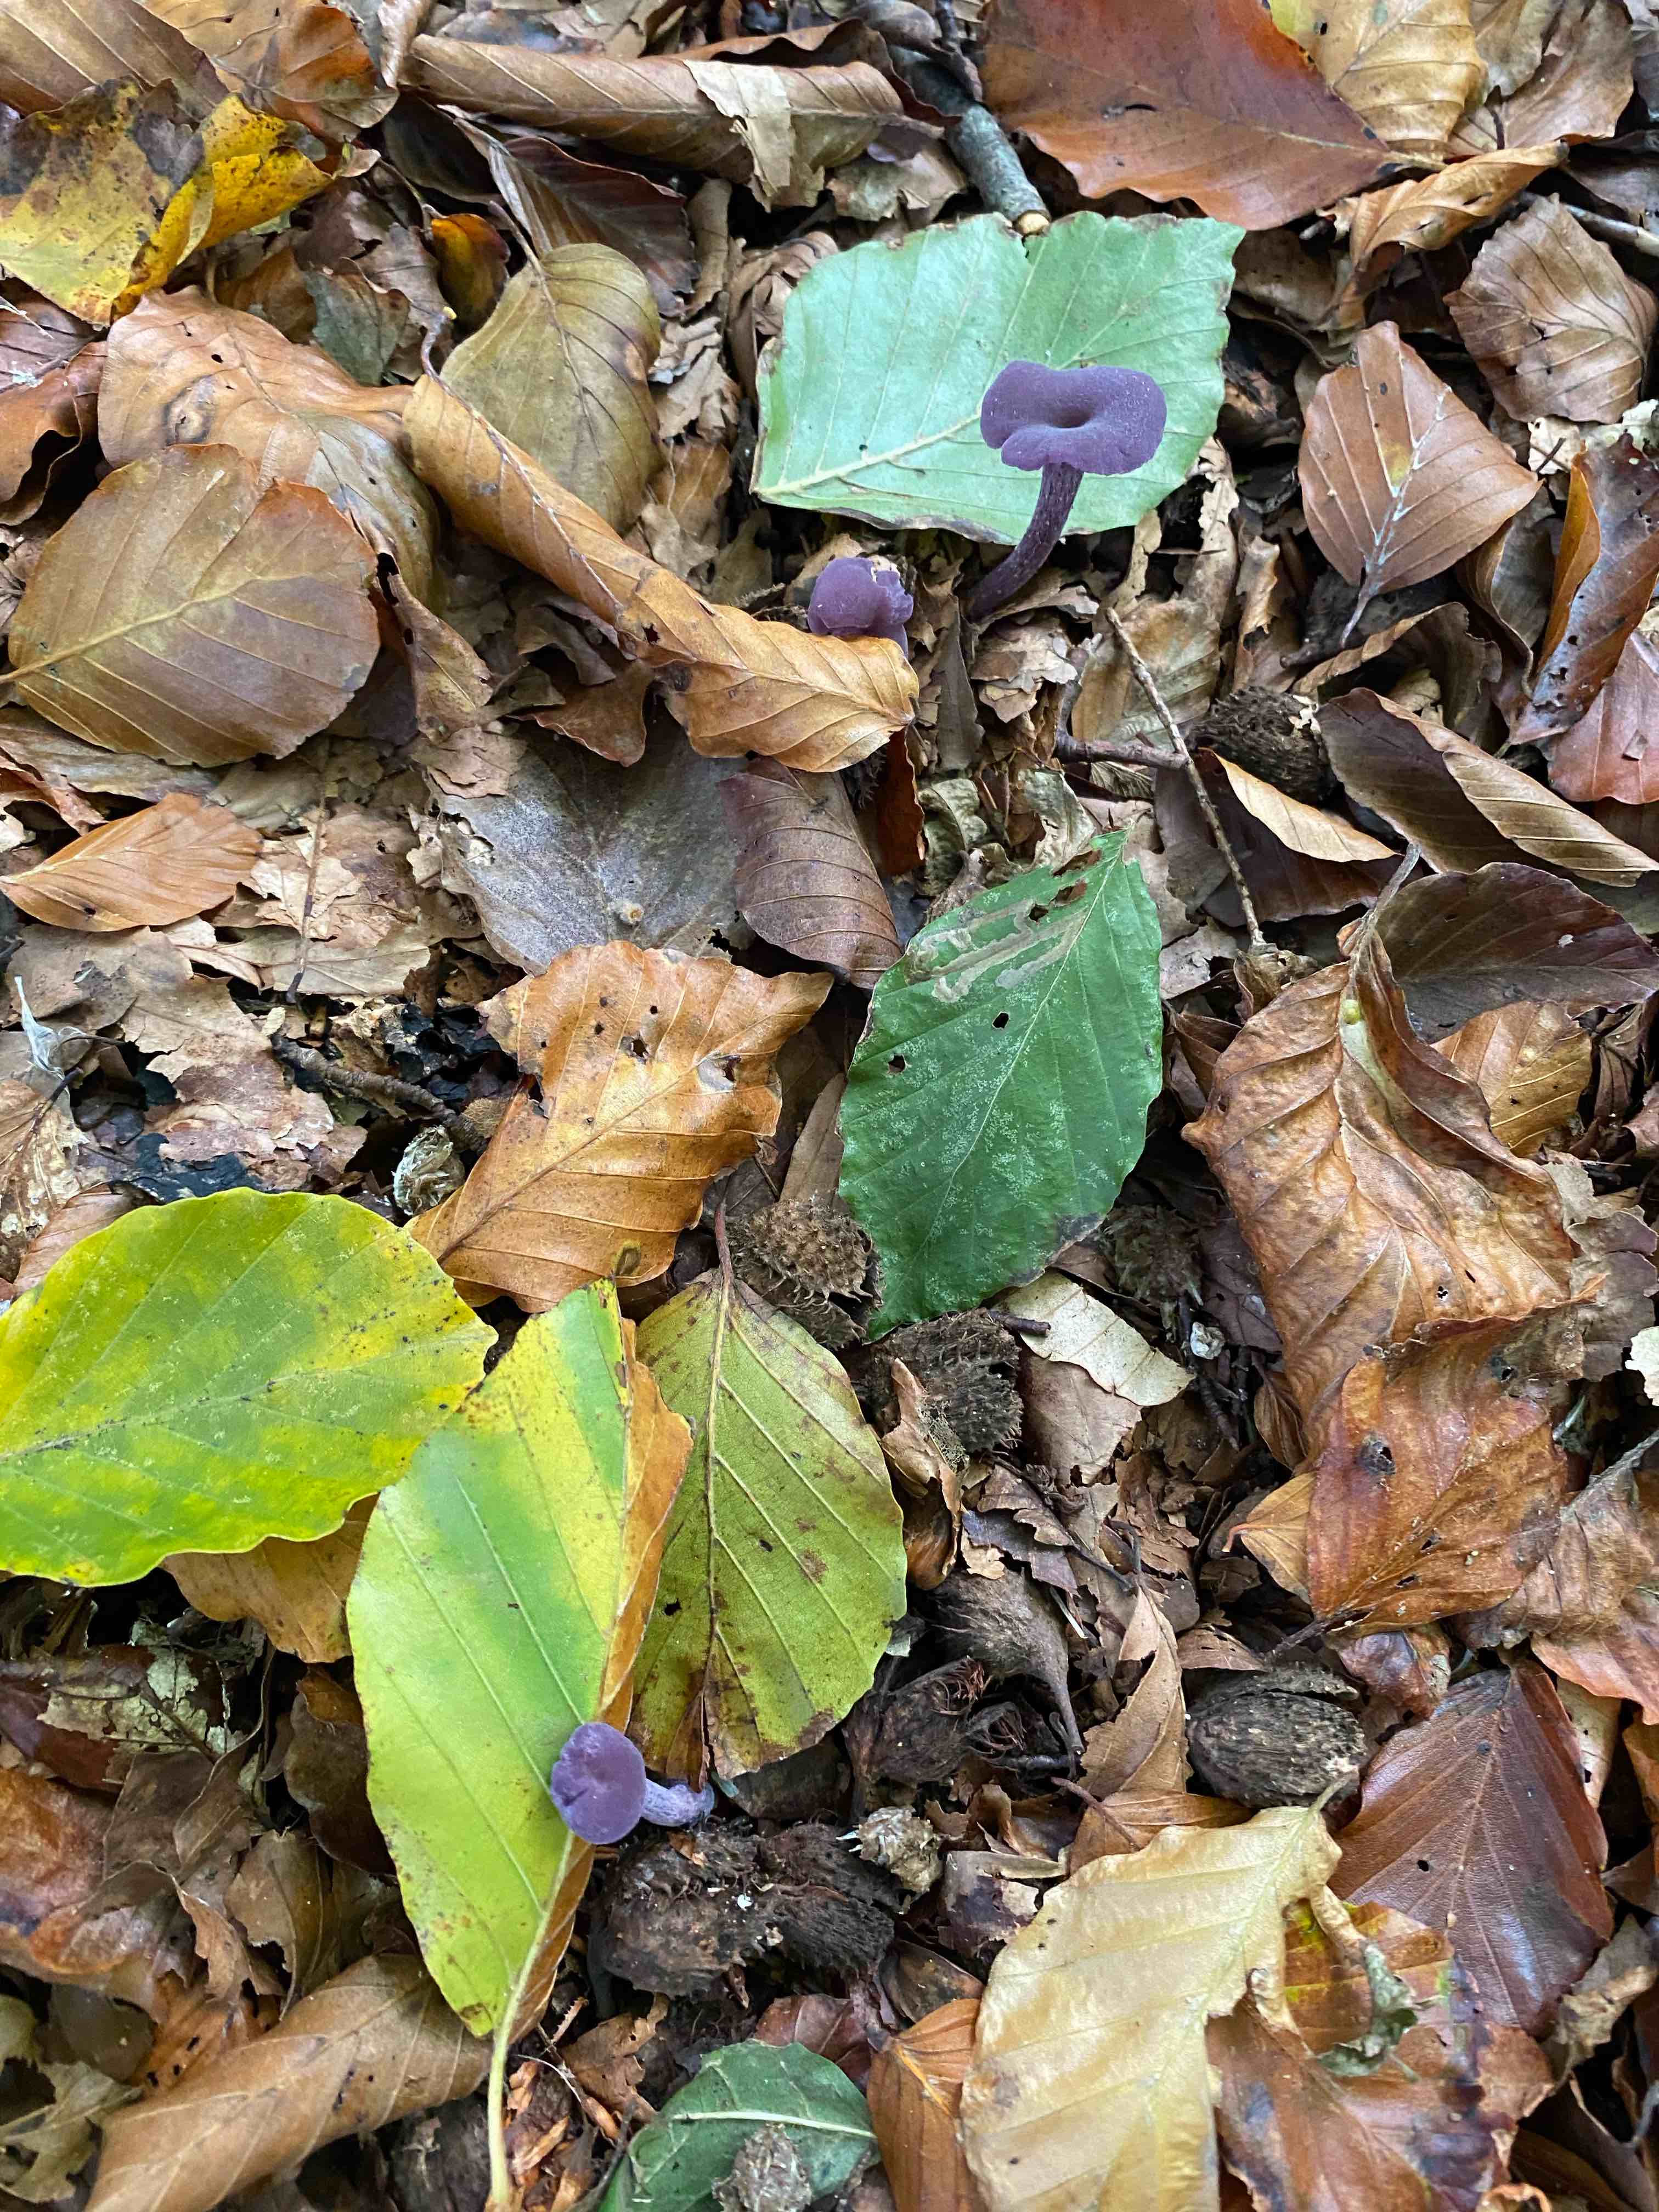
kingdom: Fungi
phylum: Basidiomycota
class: Agaricomycetes
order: Agaricales
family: Hydnangiaceae
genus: Laccaria
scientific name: Laccaria amethystina
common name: violet ametysthat
